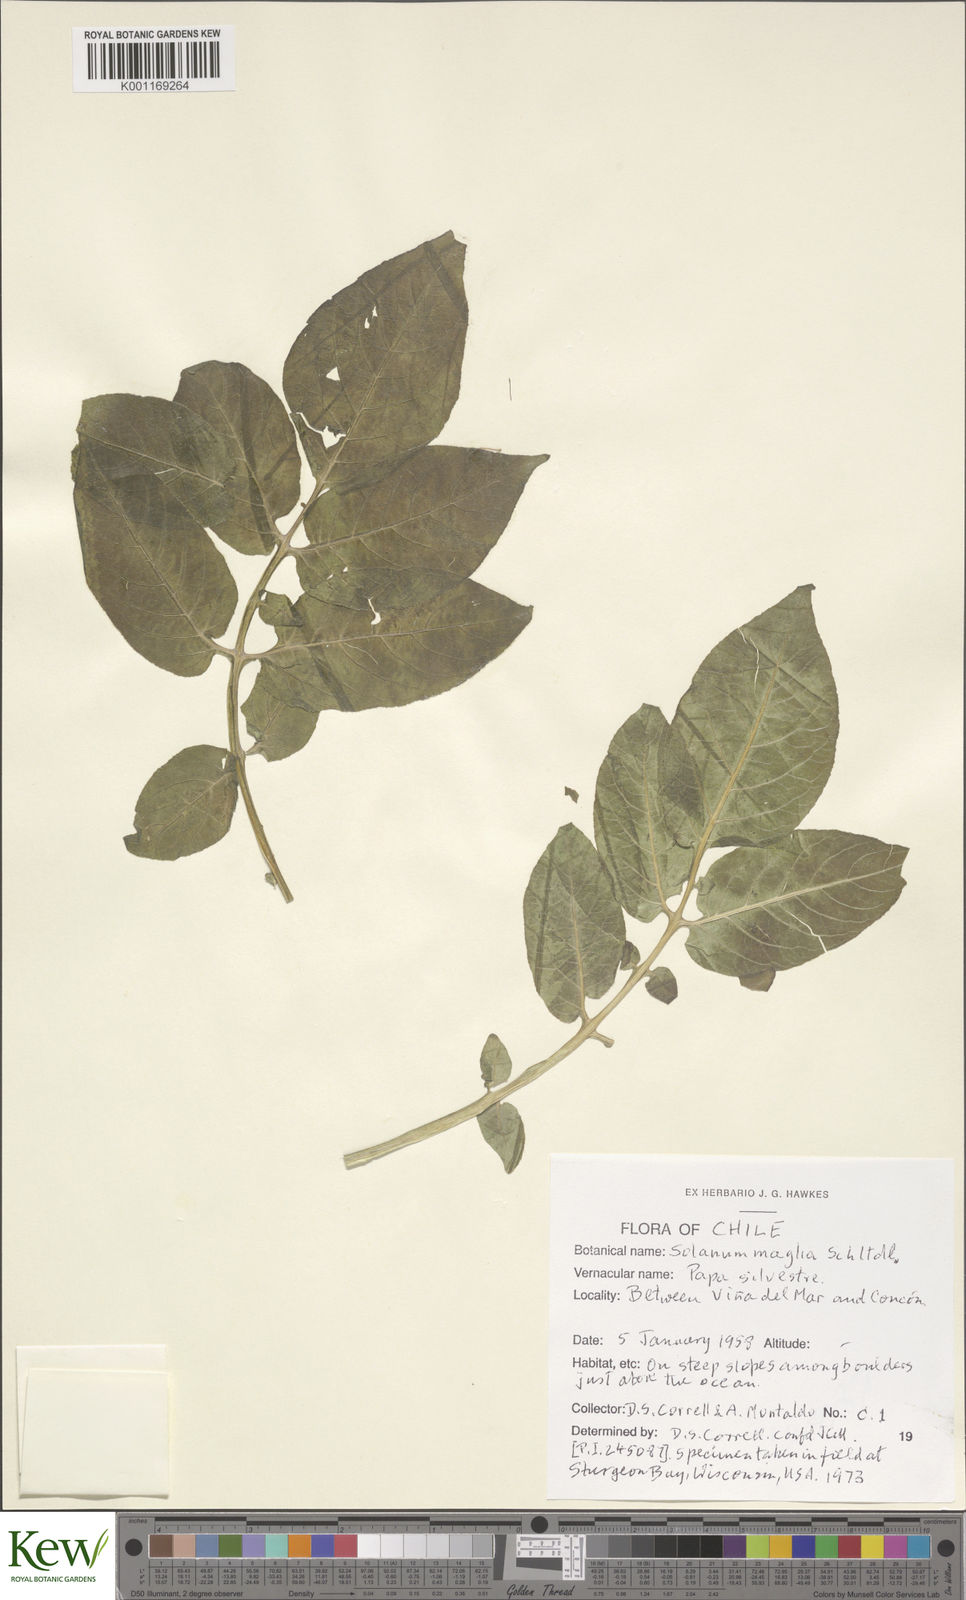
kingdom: Plantae
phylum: Tracheophyta
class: Magnoliopsida
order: Solanales
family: Solanaceae
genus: Solanum
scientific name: Solanum maglia
